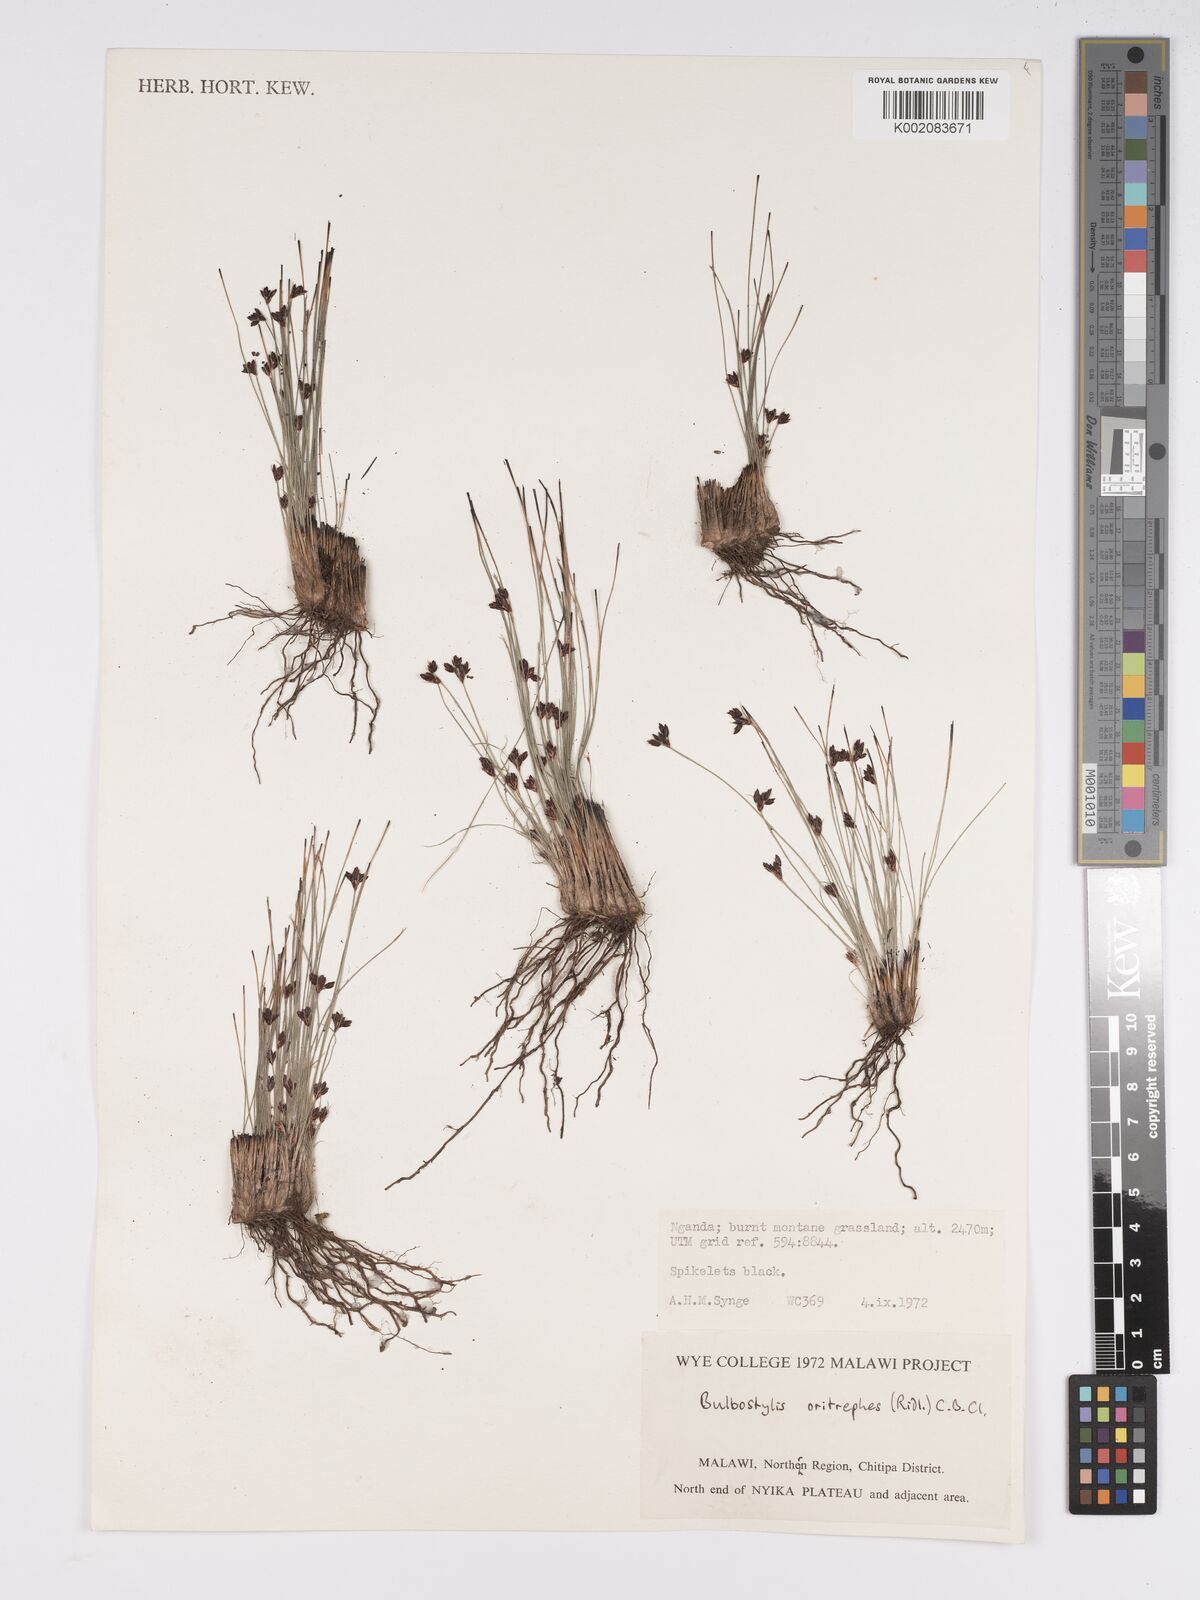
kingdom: Plantae
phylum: Tracheophyta
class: Liliopsida
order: Poales
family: Cyperaceae
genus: Bulbostylis
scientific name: Bulbostylis oritrephes
